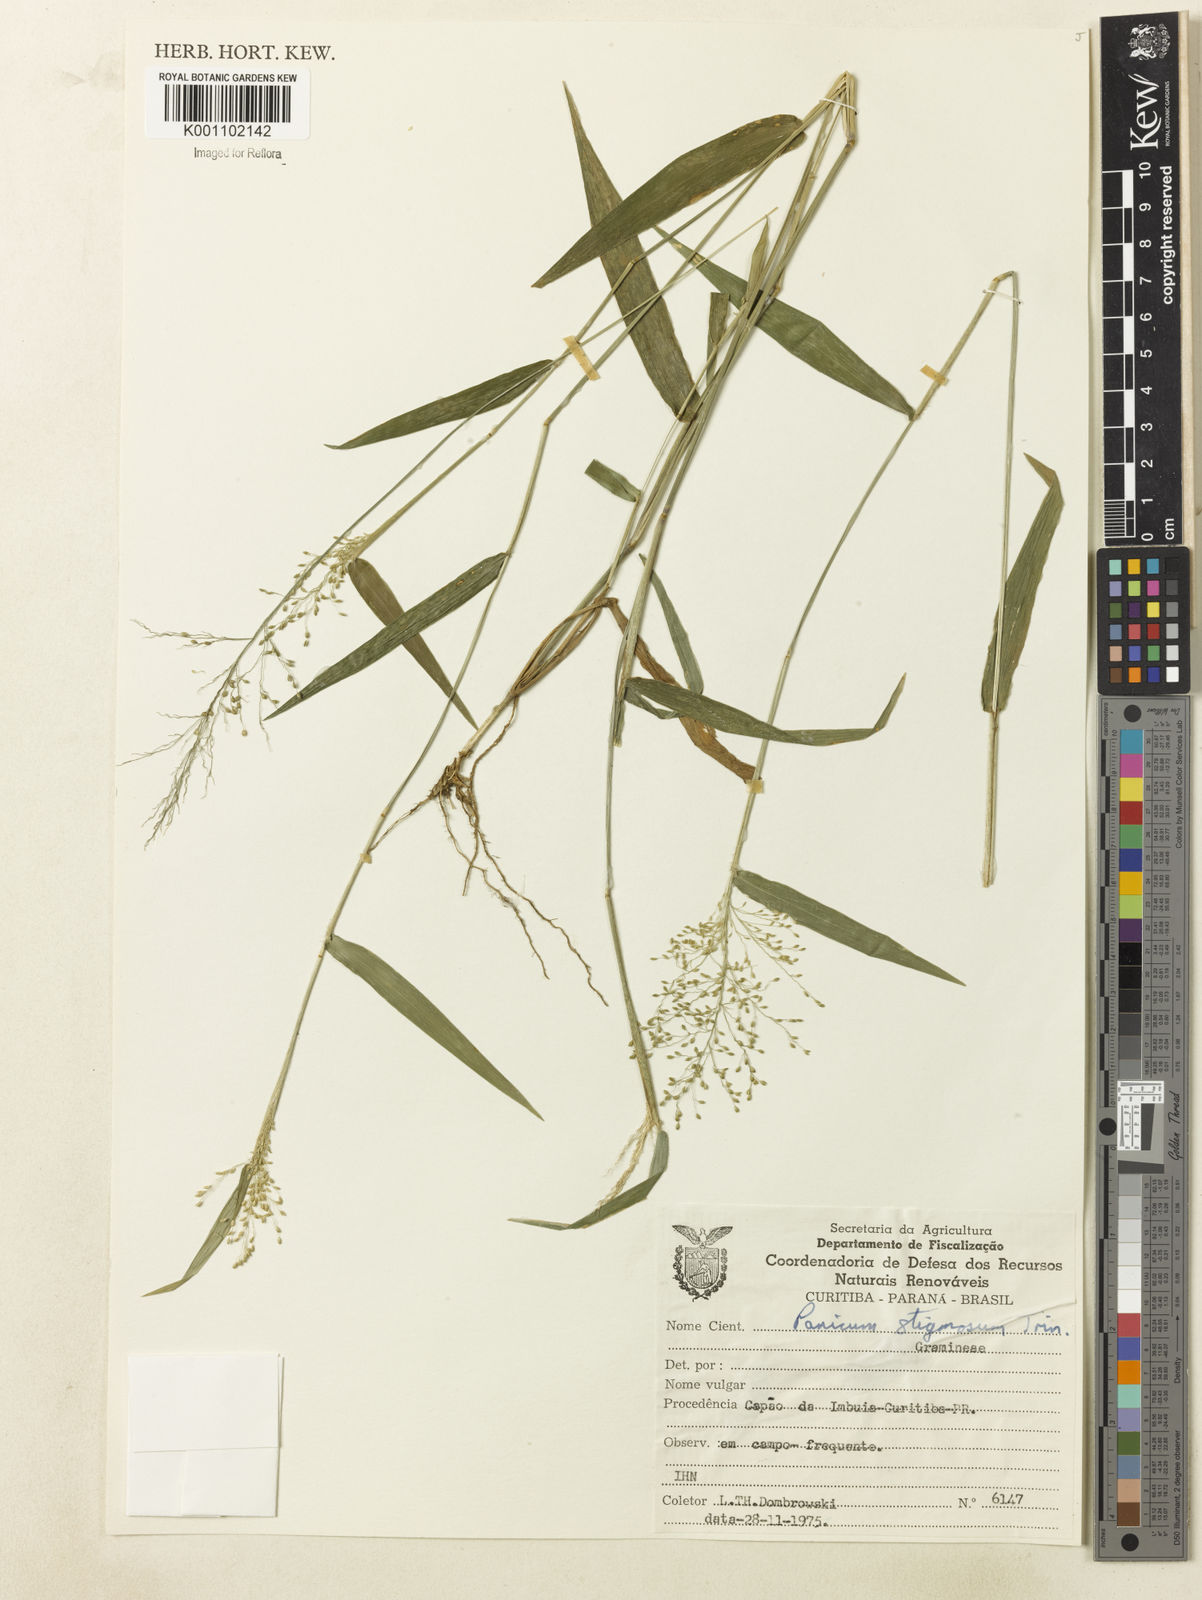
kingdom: Plantae
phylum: Tracheophyta
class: Liliopsida
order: Poales
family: Poaceae
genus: Dichanthelium
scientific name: Dichanthelium stigmosum
